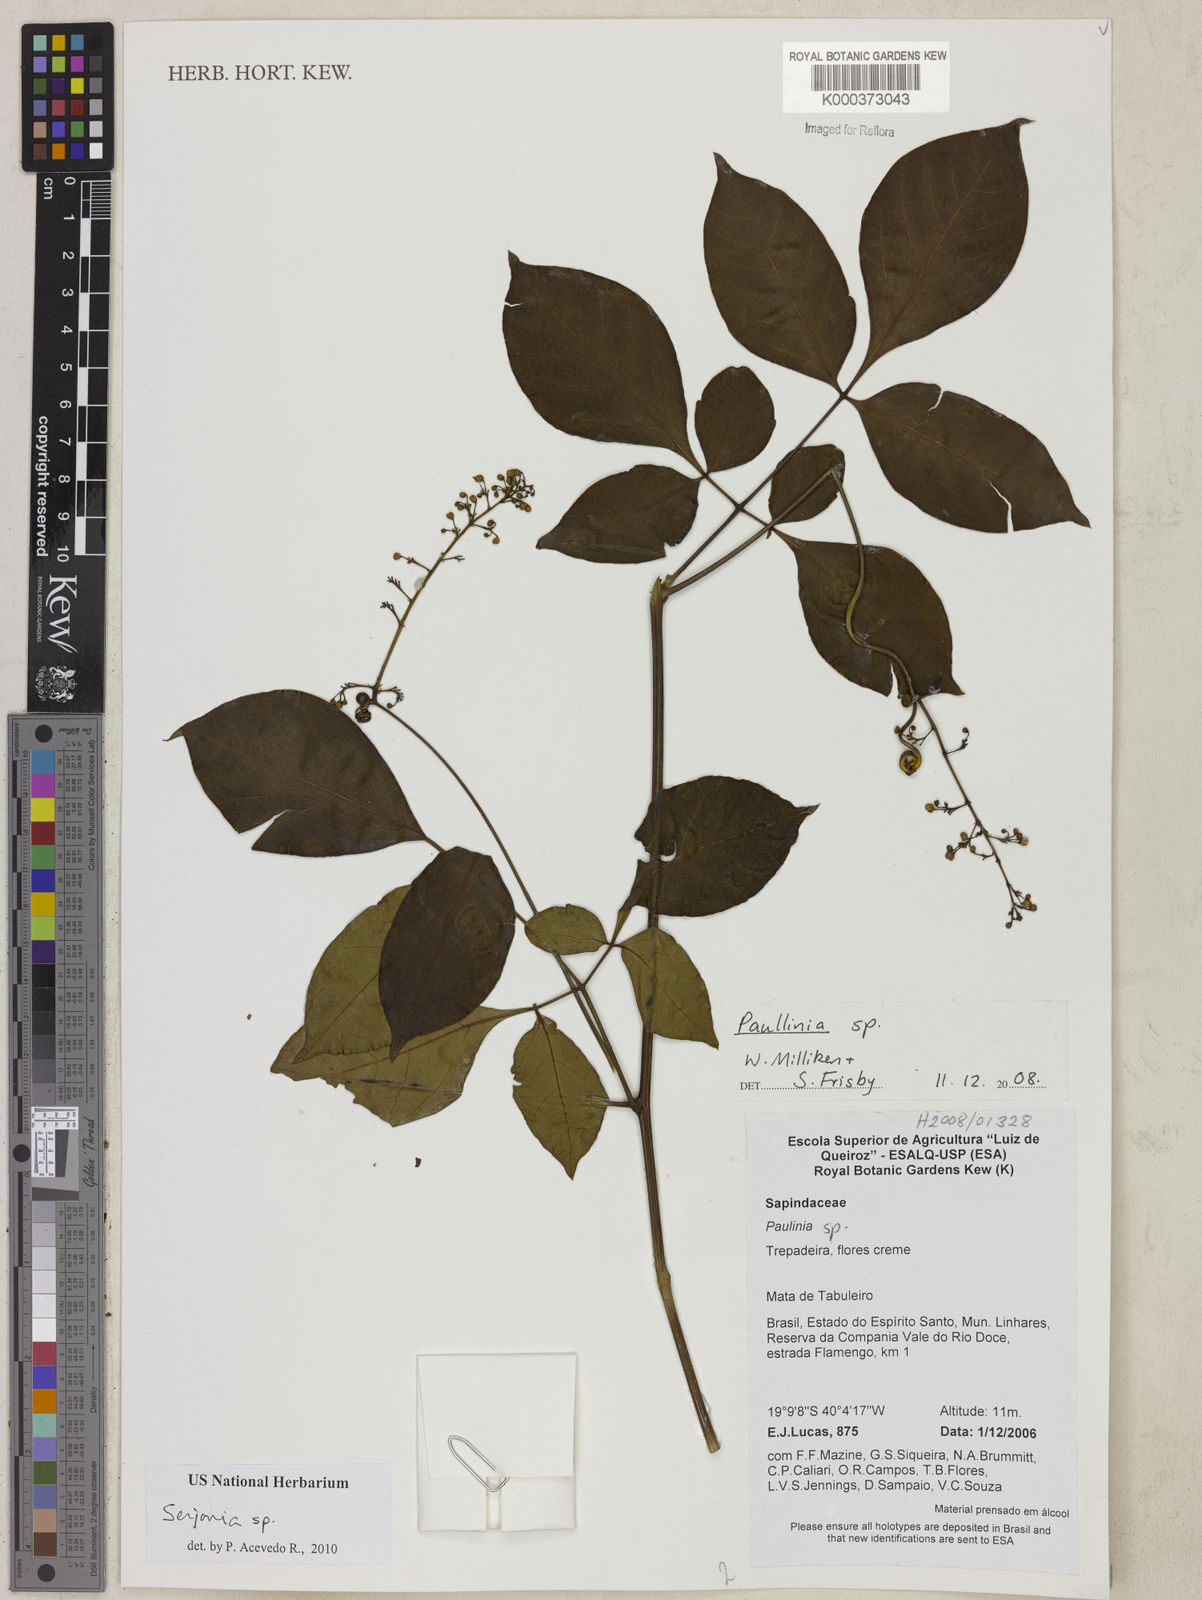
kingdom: Plantae
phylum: Tracheophyta
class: Magnoliopsida
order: Sapindales
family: Sapindaceae
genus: Paullinia
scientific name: Paullinia
